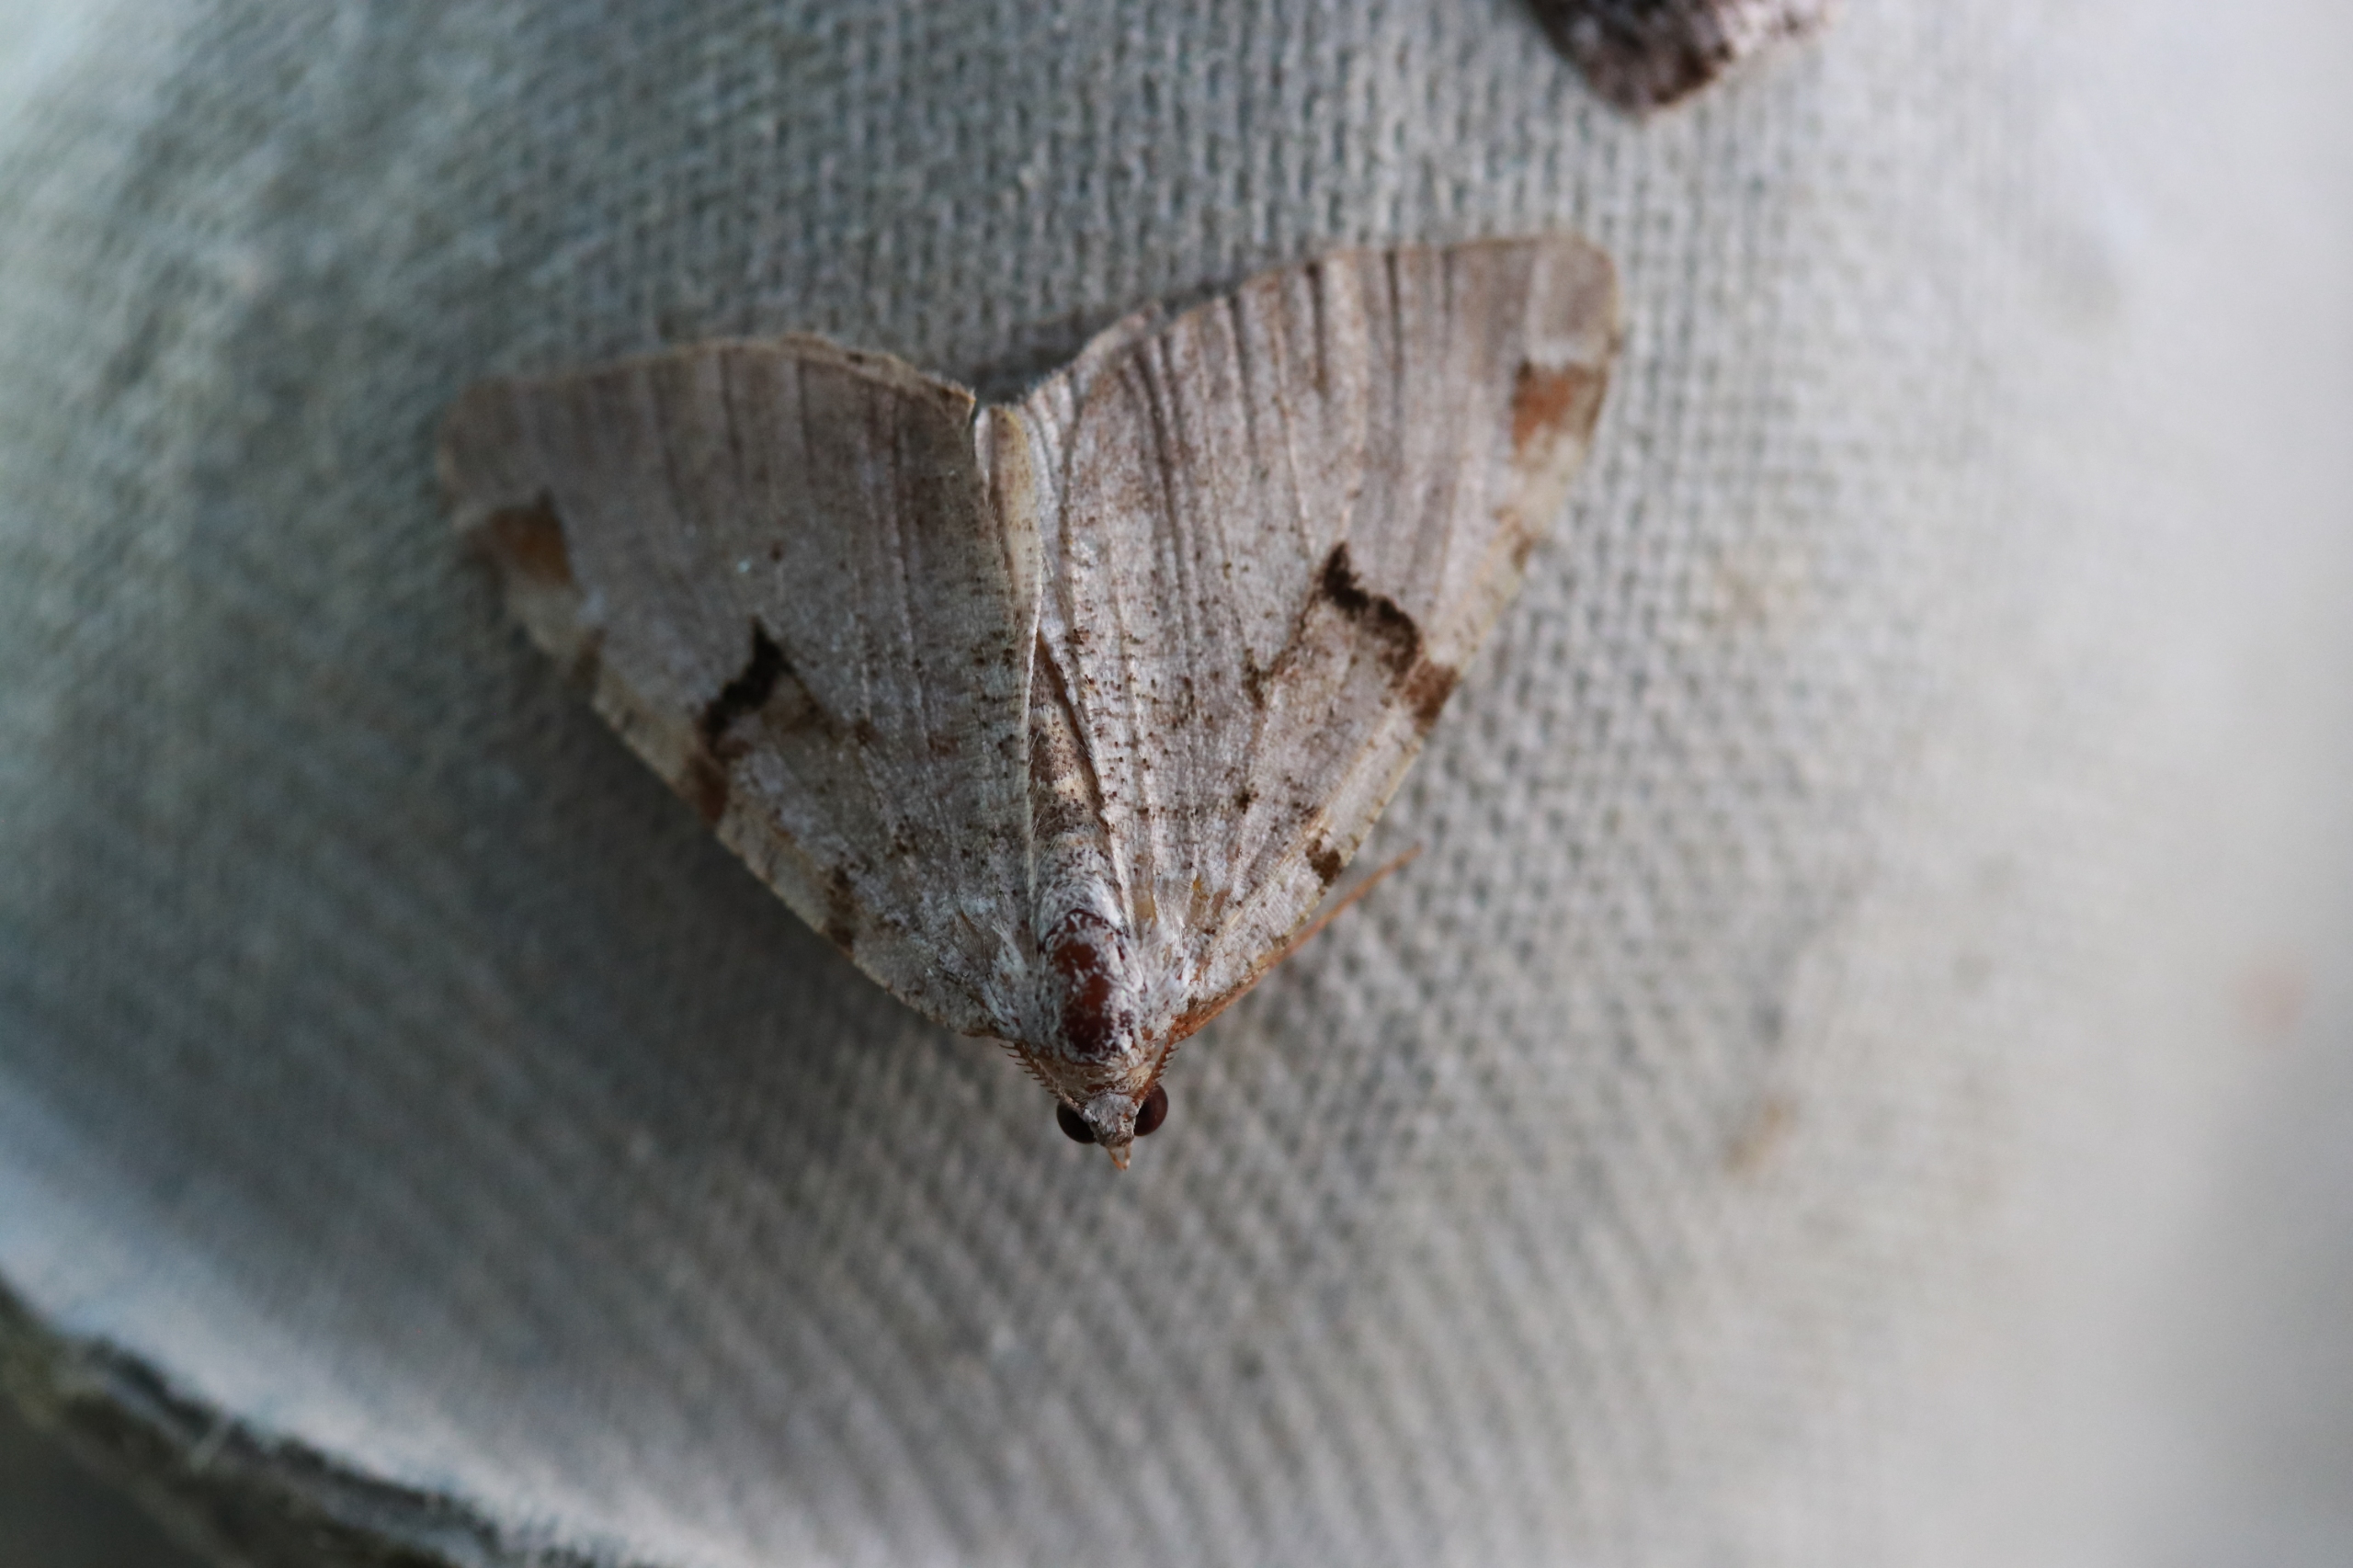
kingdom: Animalia
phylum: Arthropoda
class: Insecta
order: Lepidoptera
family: Geometridae
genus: Macaria
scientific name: Macaria wauaria
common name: Lille stikkelsbærmåler
